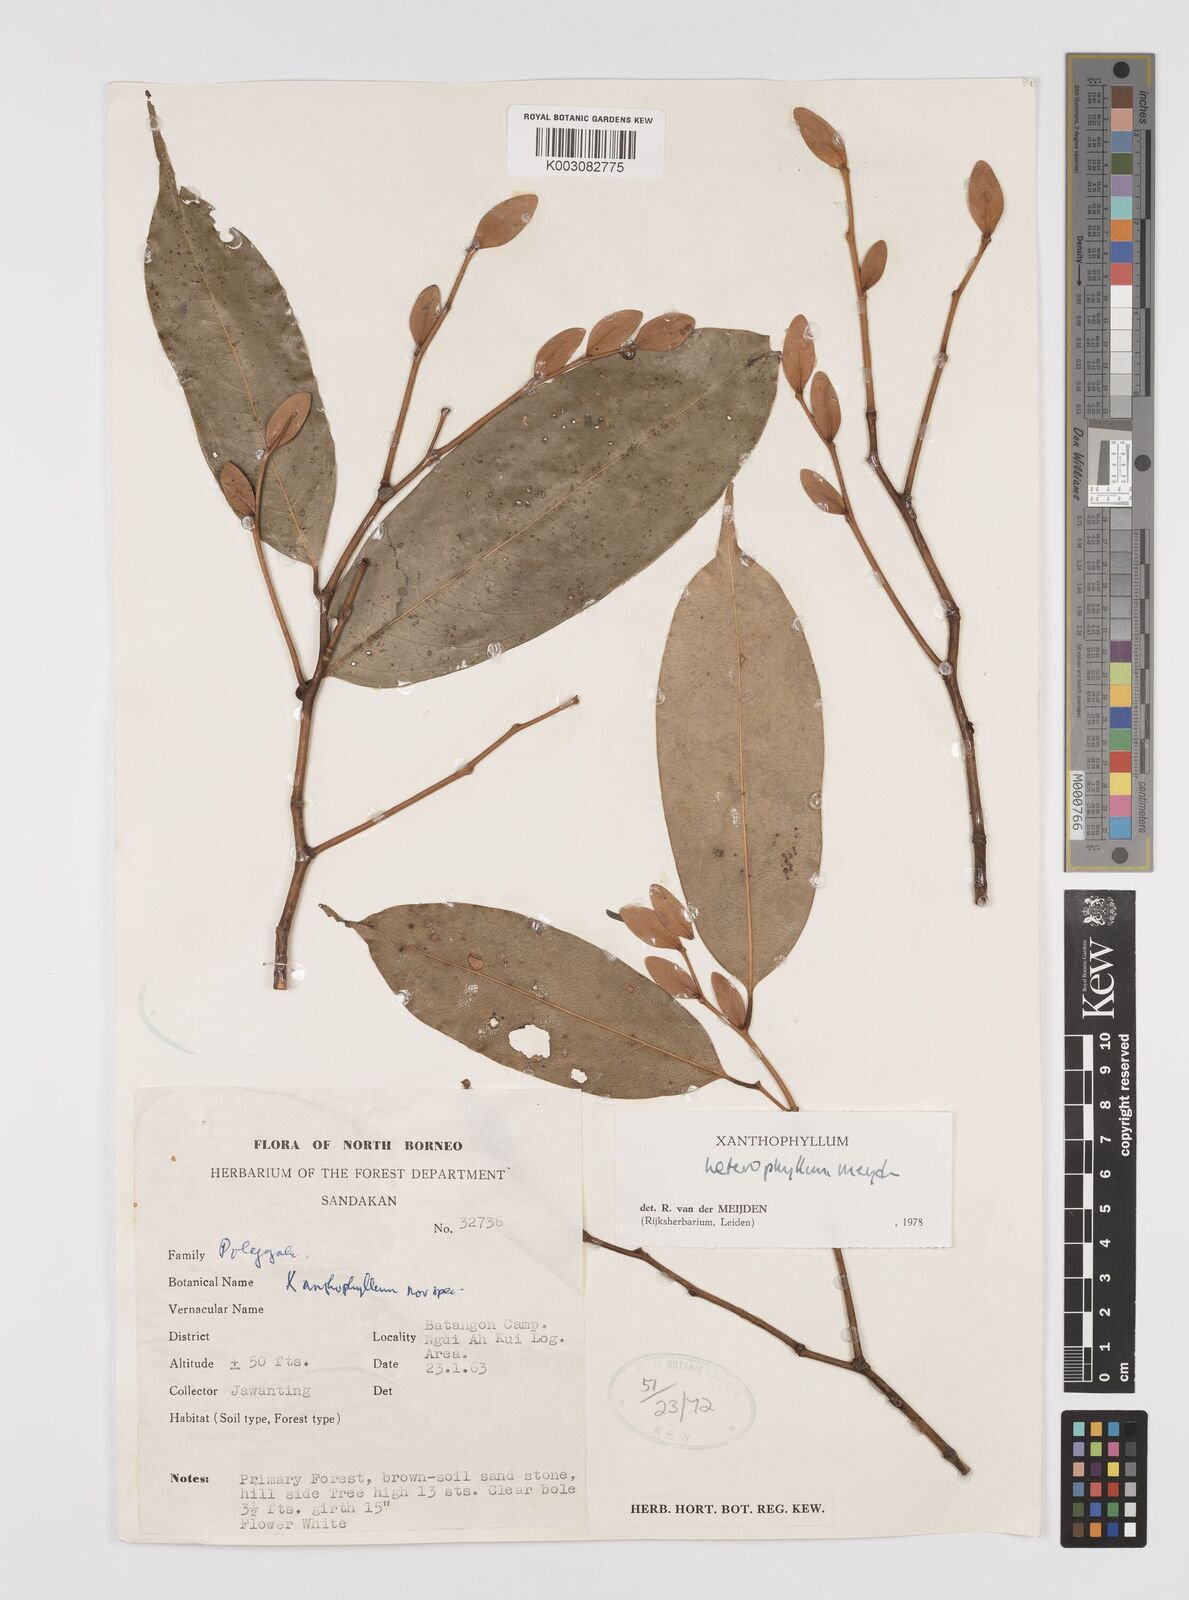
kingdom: Plantae
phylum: Tracheophyta
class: Magnoliopsida
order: Fabales
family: Polygalaceae
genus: Xanthophyllum
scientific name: Xanthophyllum heterophyllum
